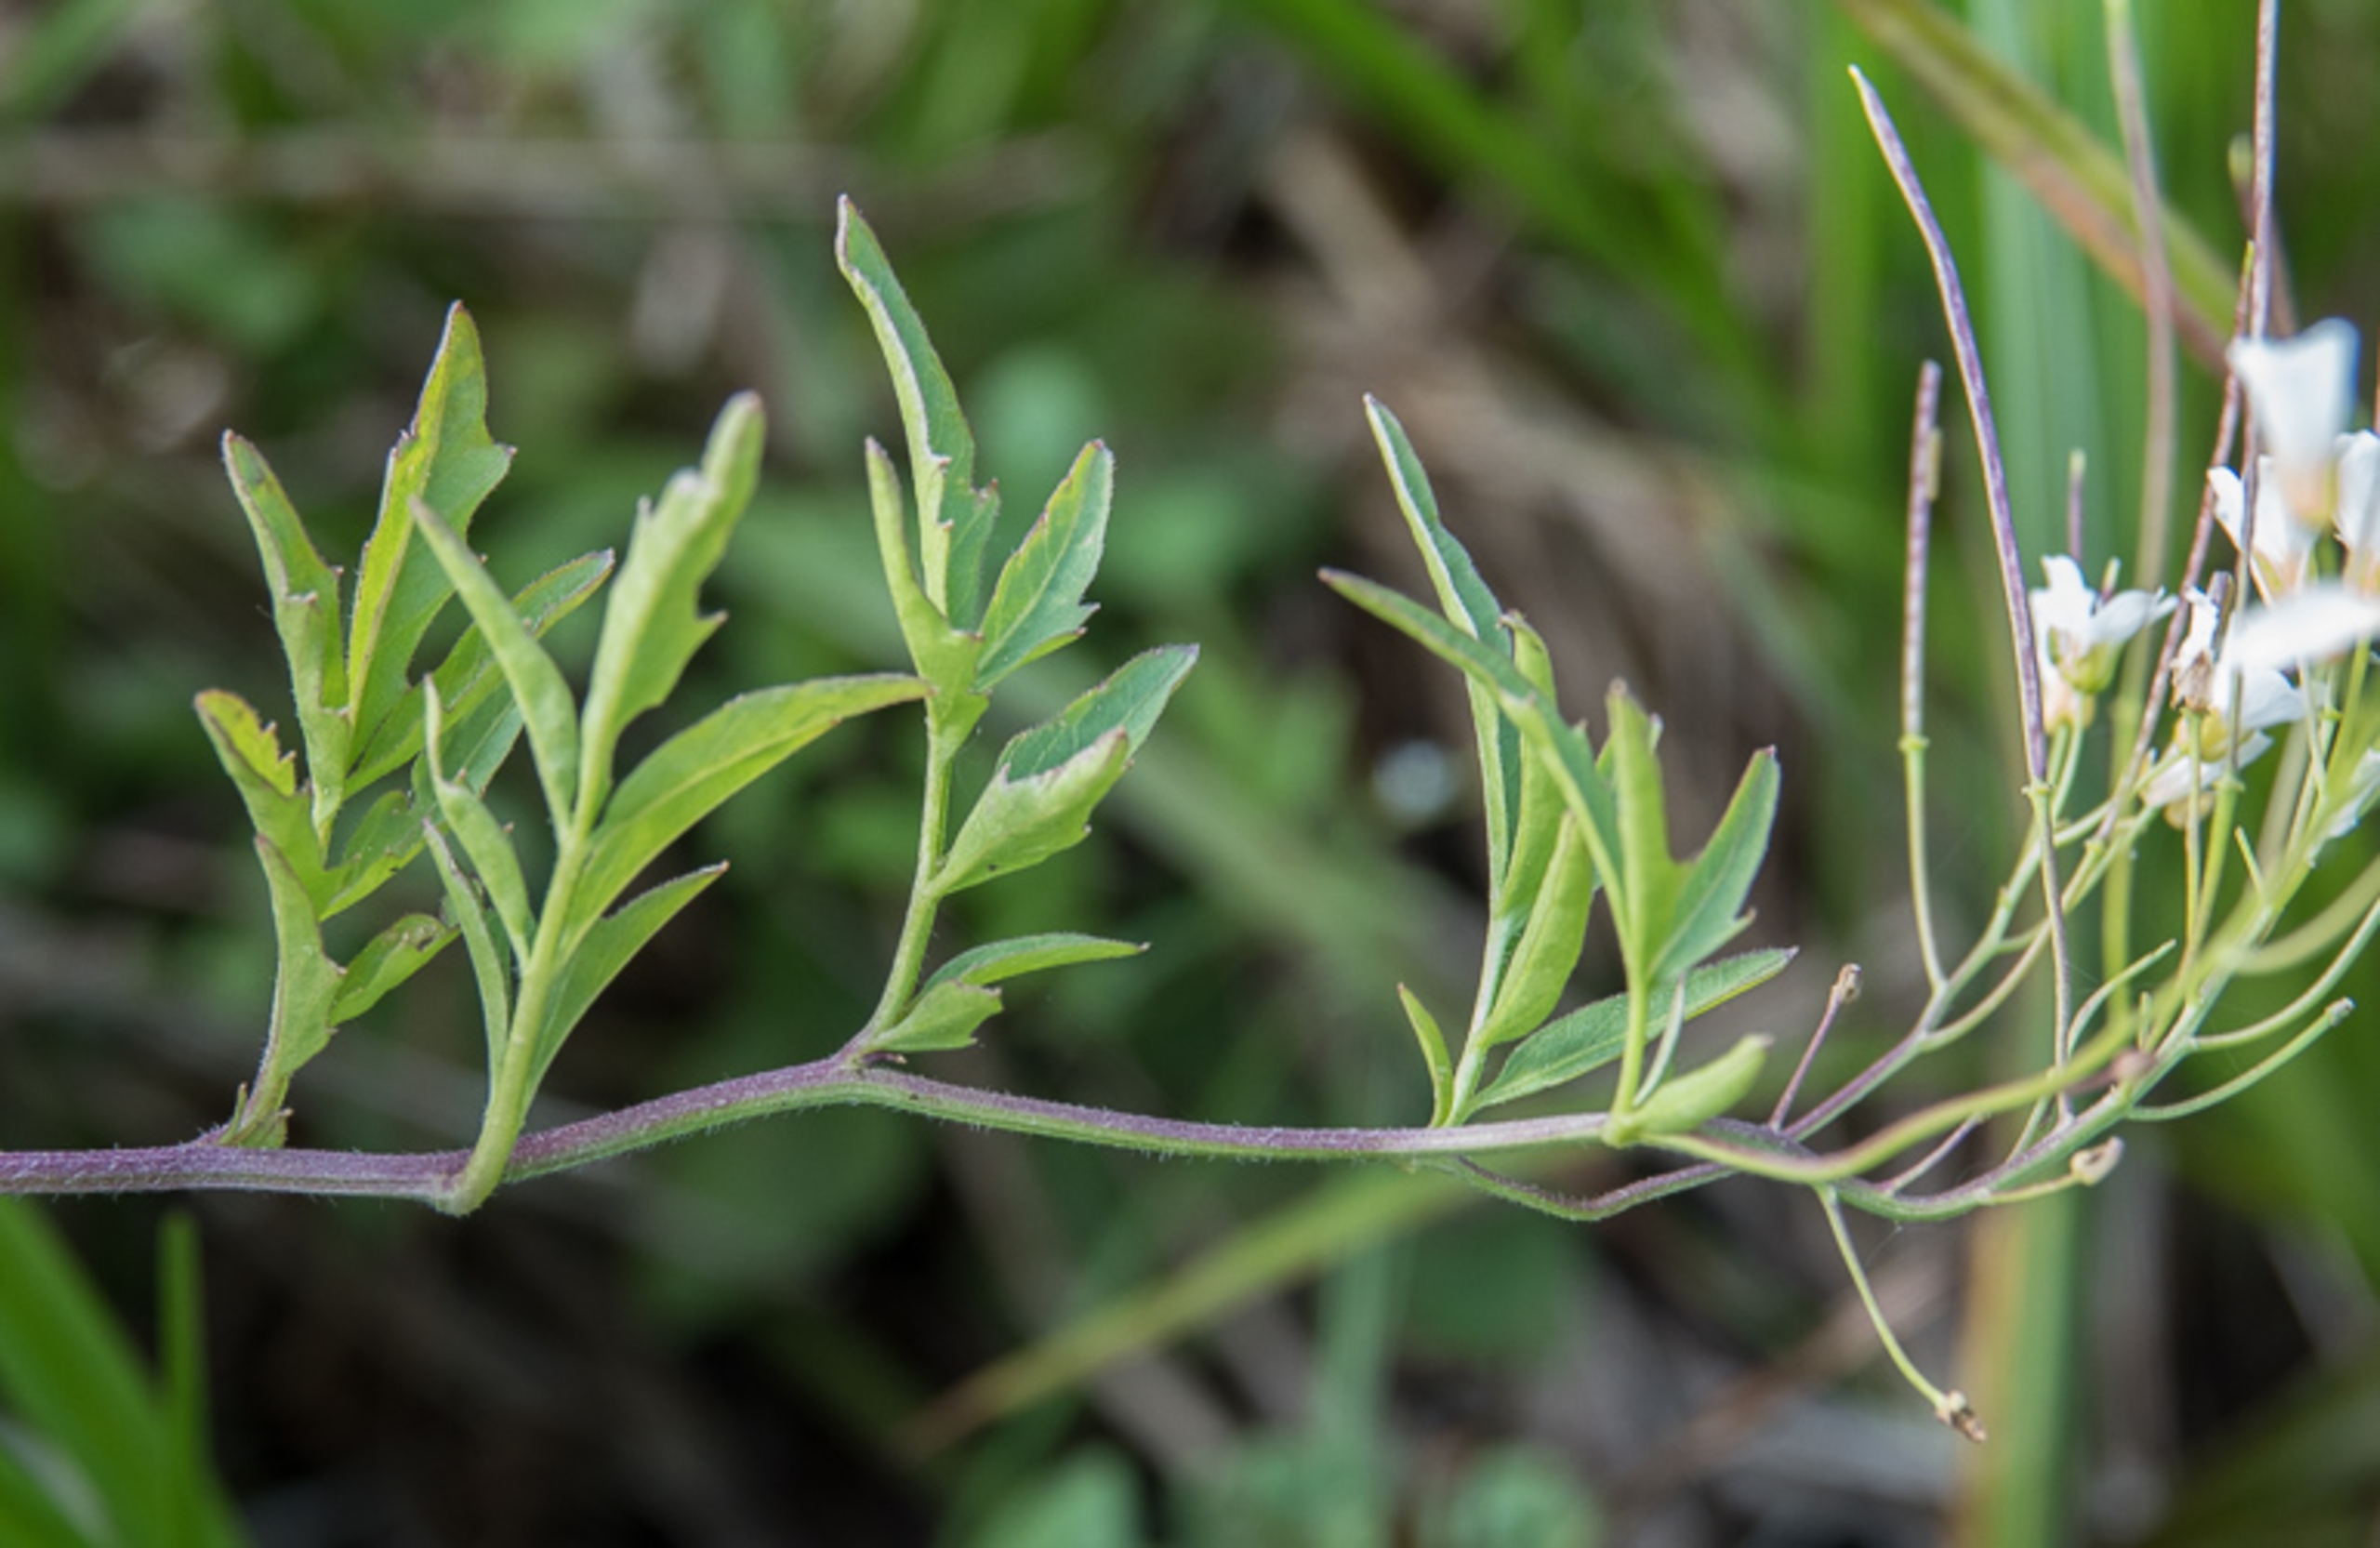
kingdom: Plantae
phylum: Tracheophyta
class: Magnoliopsida
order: Brassicales
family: Brassicaceae
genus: Cardamine
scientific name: Cardamine amara
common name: Vandkarse
